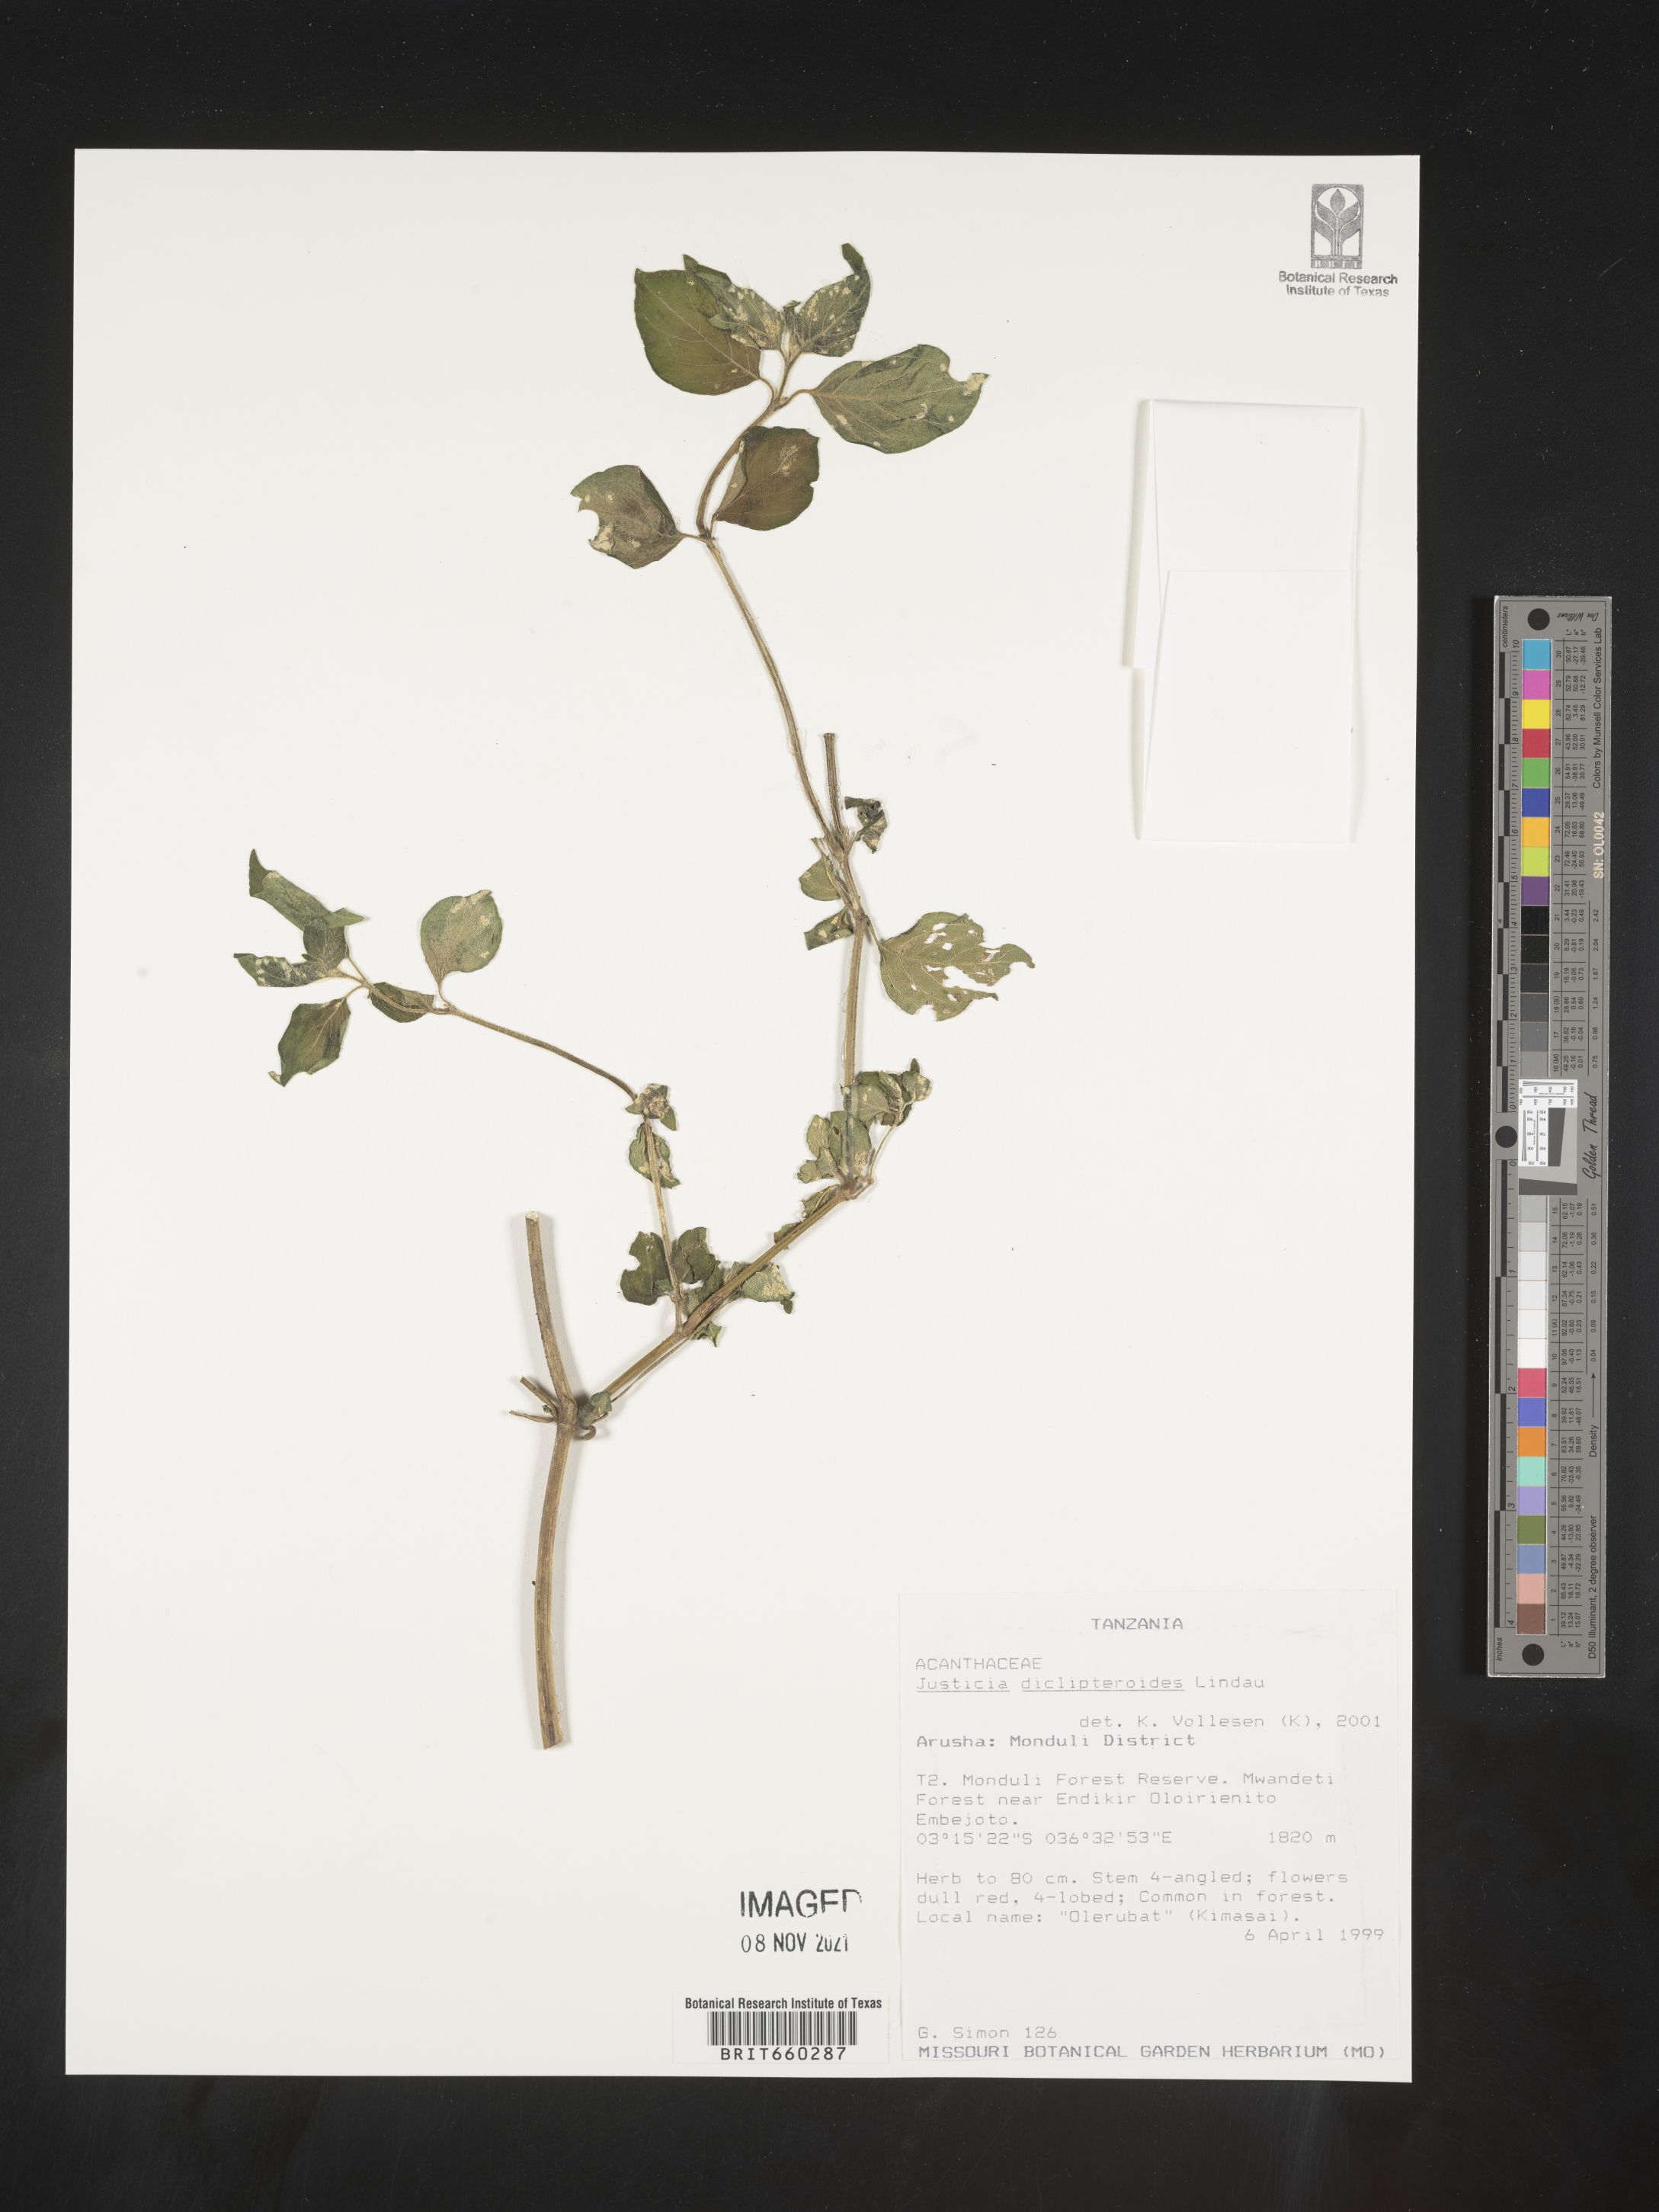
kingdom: Plantae
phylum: Tracheophyta
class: Magnoliopsida
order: Lamiales
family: Acanthaceae
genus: Justicia
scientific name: Justicia
